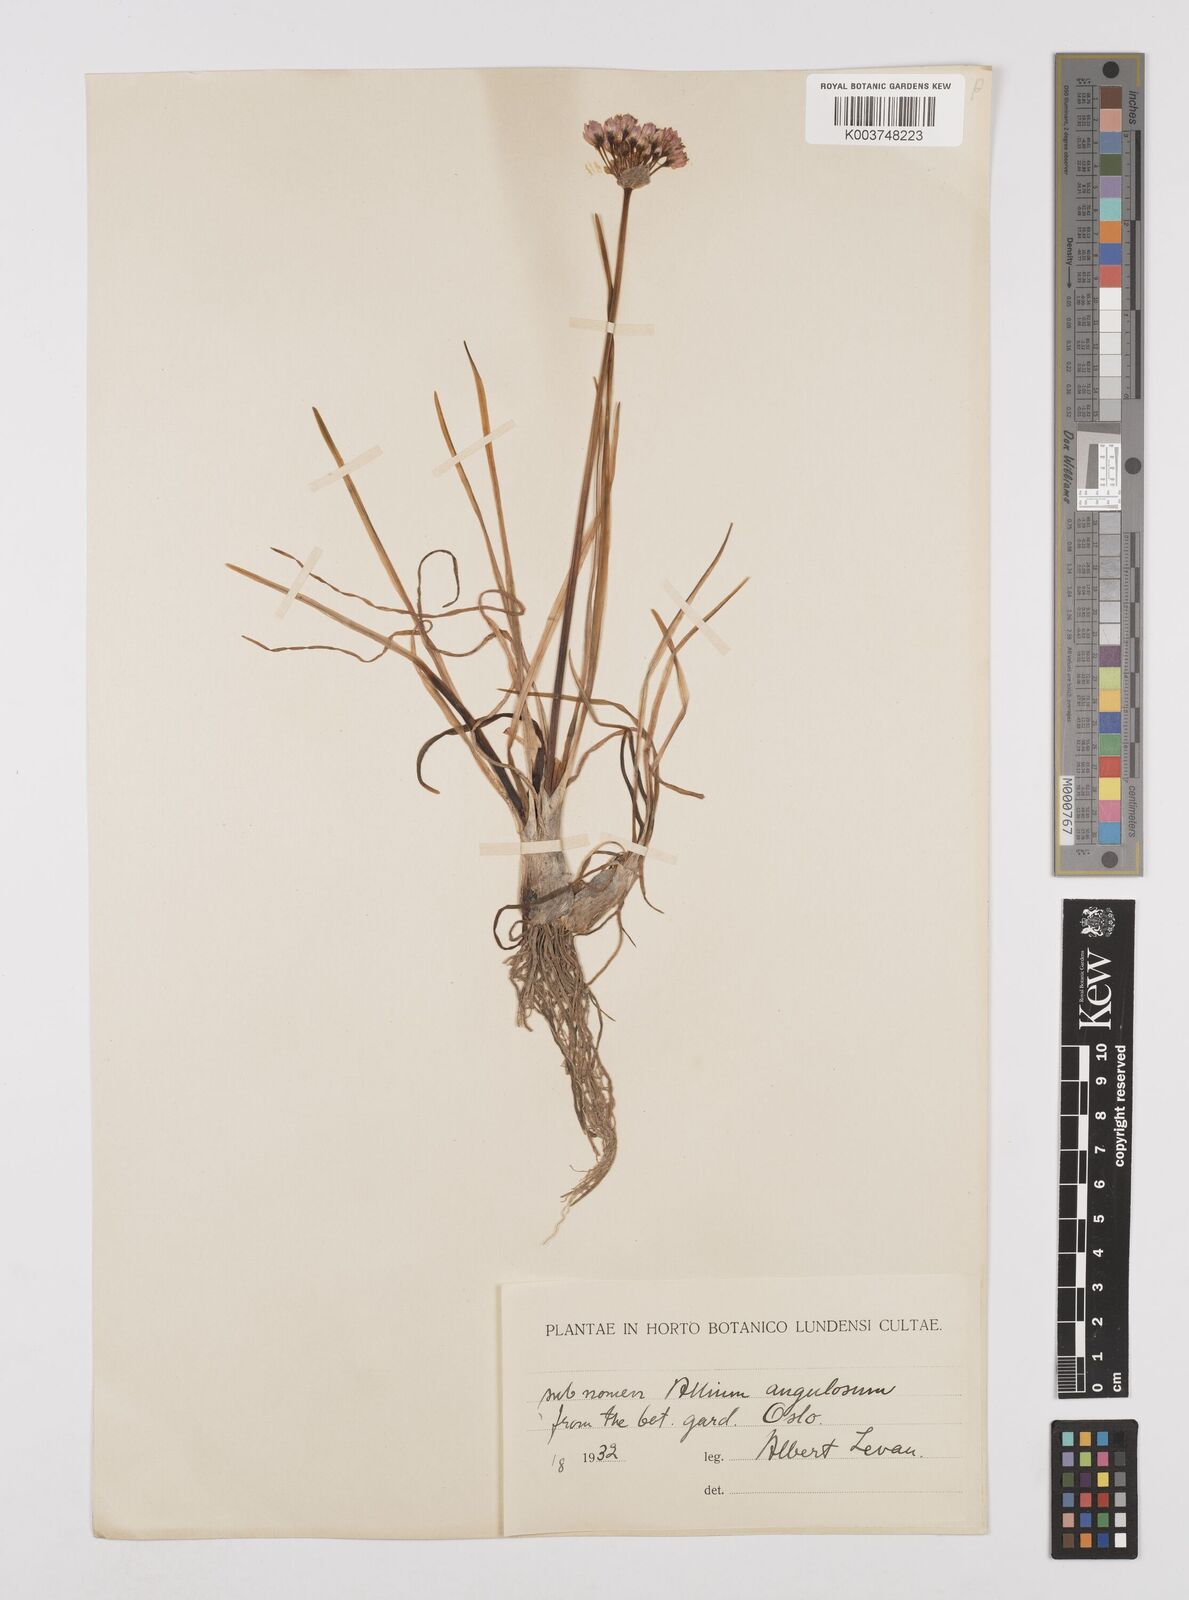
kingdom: Plantae
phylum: Tracheophyta
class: Liliopsida
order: Asparagales
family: Amaryllidaceae
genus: Allium
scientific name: Allium angulosum
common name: Mouse garlic
